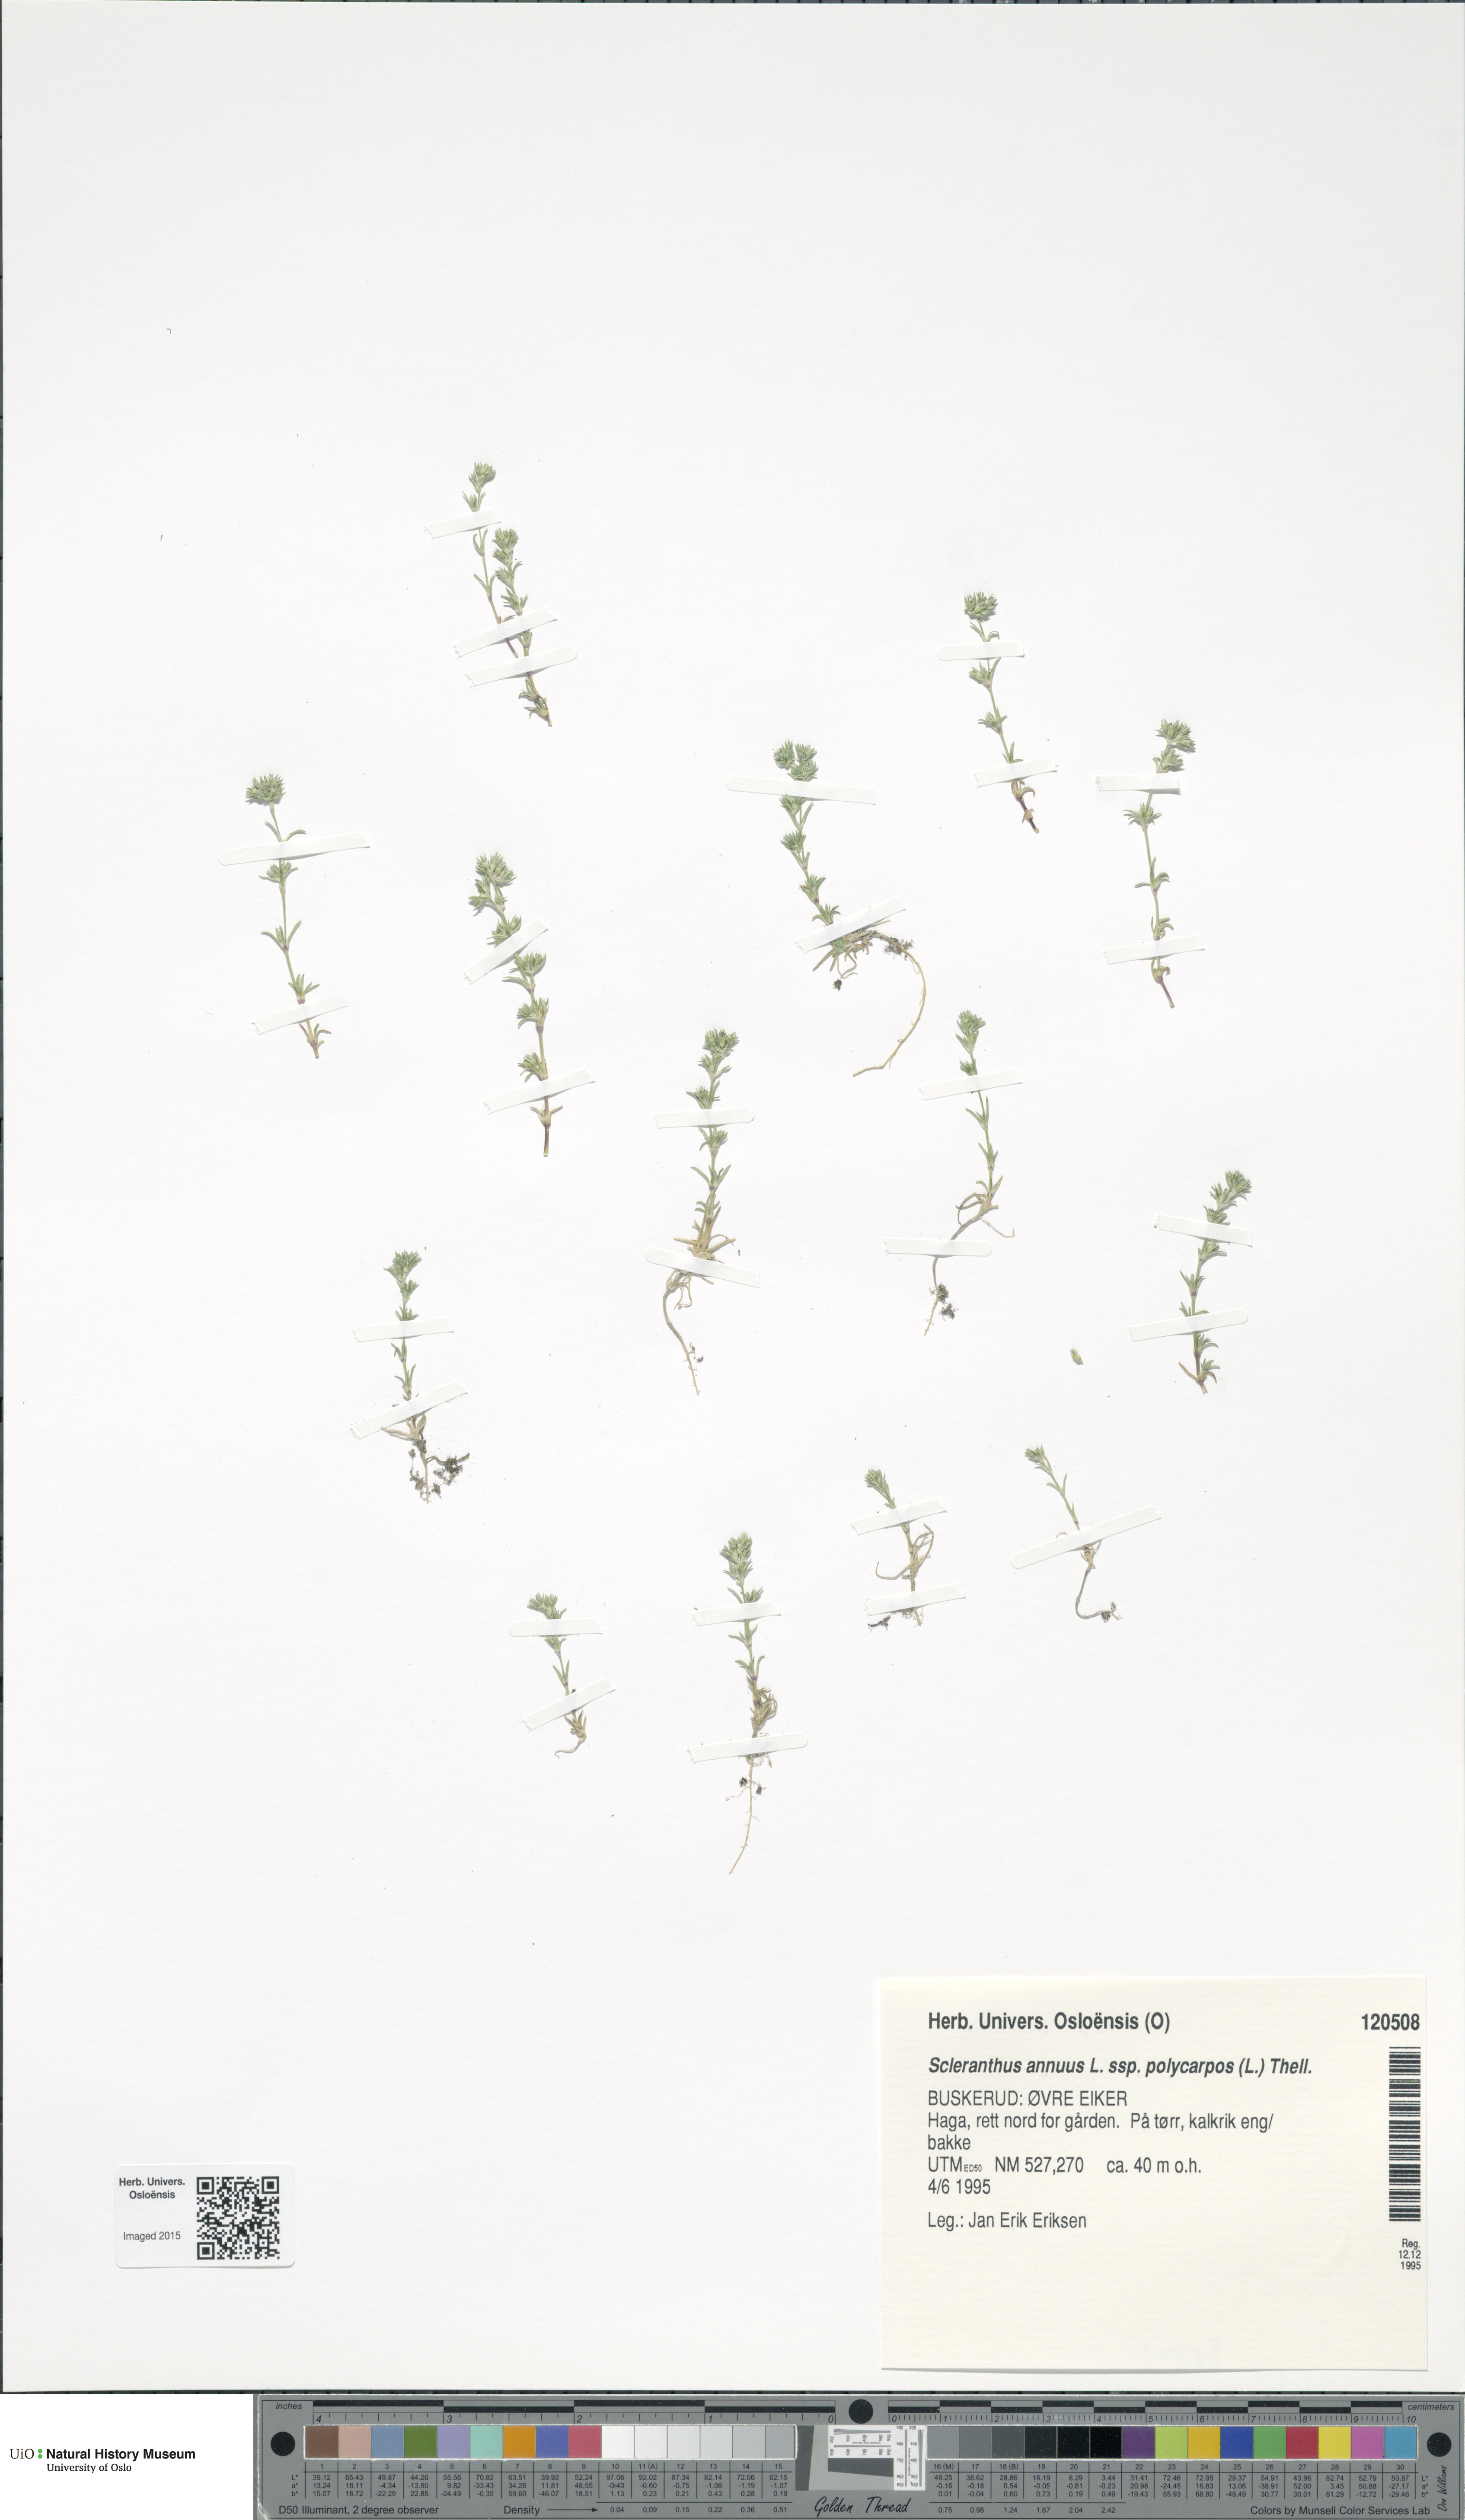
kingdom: Plantae
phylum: Tracheophyta
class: Magnoliopsida
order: Caryophyllales
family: Caryophyllaceae
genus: Scleranthus
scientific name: Scleranthus annuus
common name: Annual knawel
